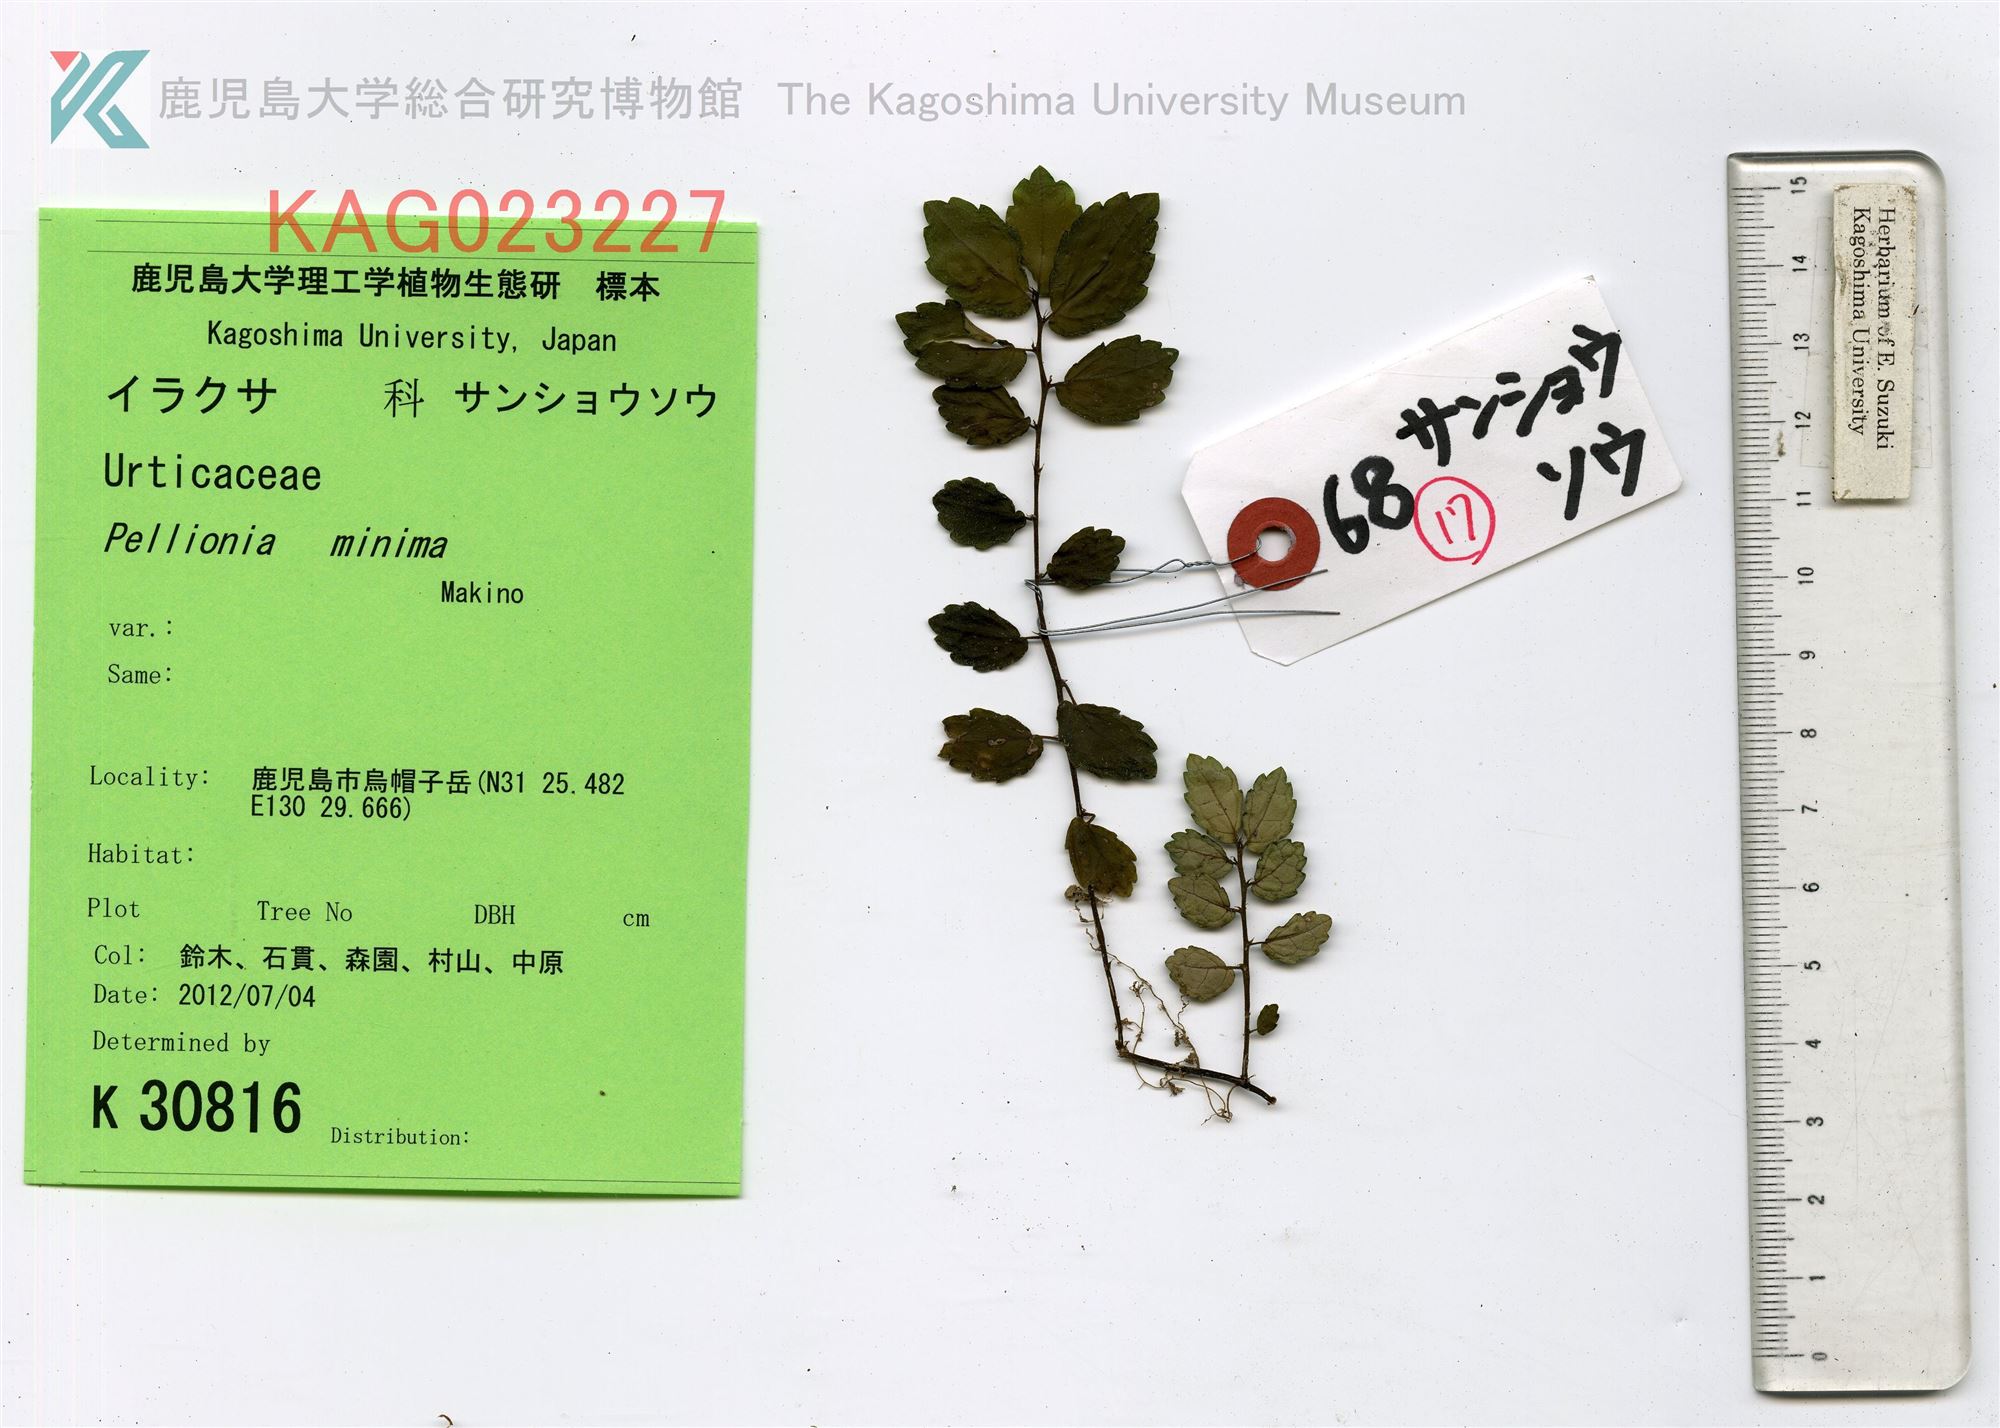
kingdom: Plantae
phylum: Tracheophyta
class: Magnoliopsida
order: Rosales
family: Urticaceae
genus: Elatostema
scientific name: Elatostema brevifolium
